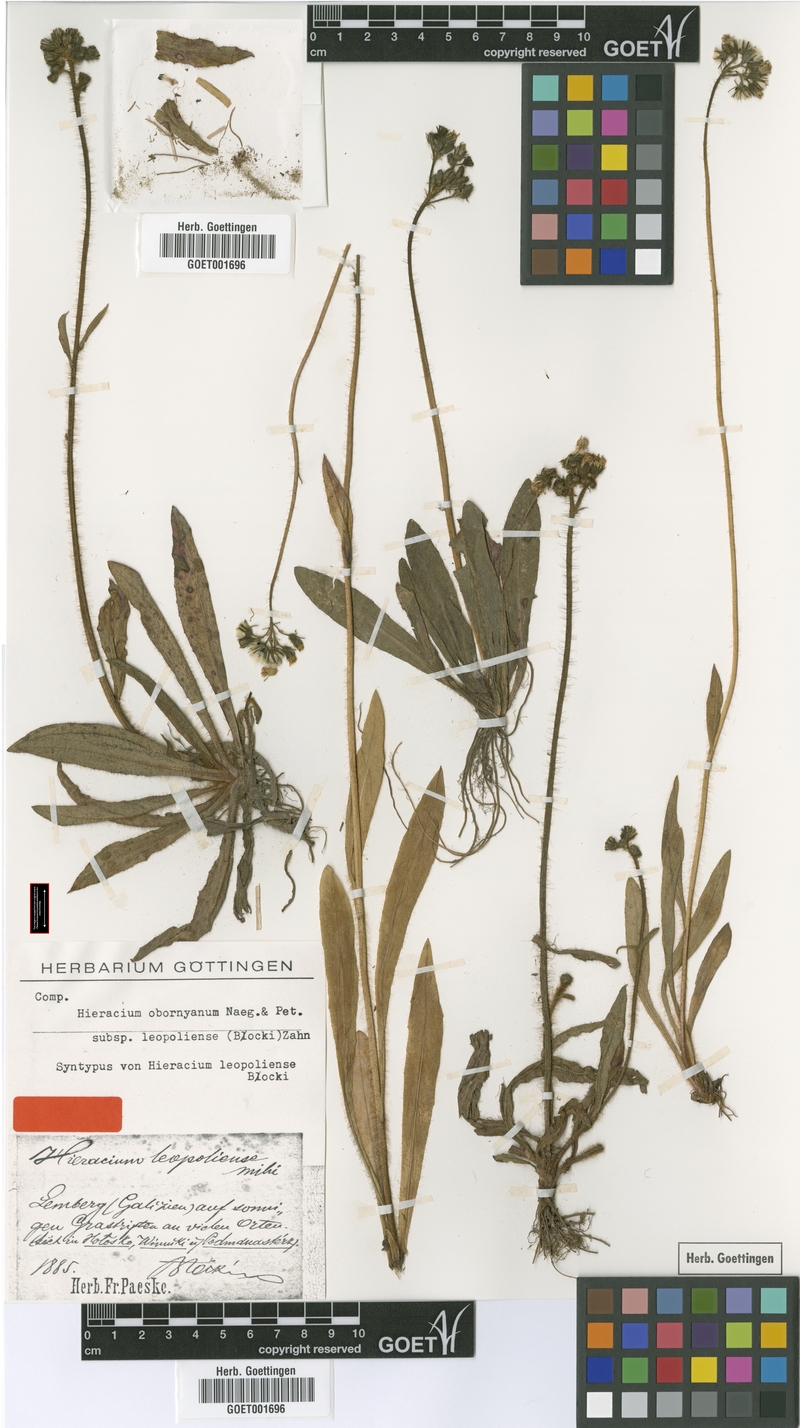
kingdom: Plantae
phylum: Tracheophyta
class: Magnoliopsida
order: Asterales
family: Asteraceae
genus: Pilosella
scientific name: Pilosella polymastix
